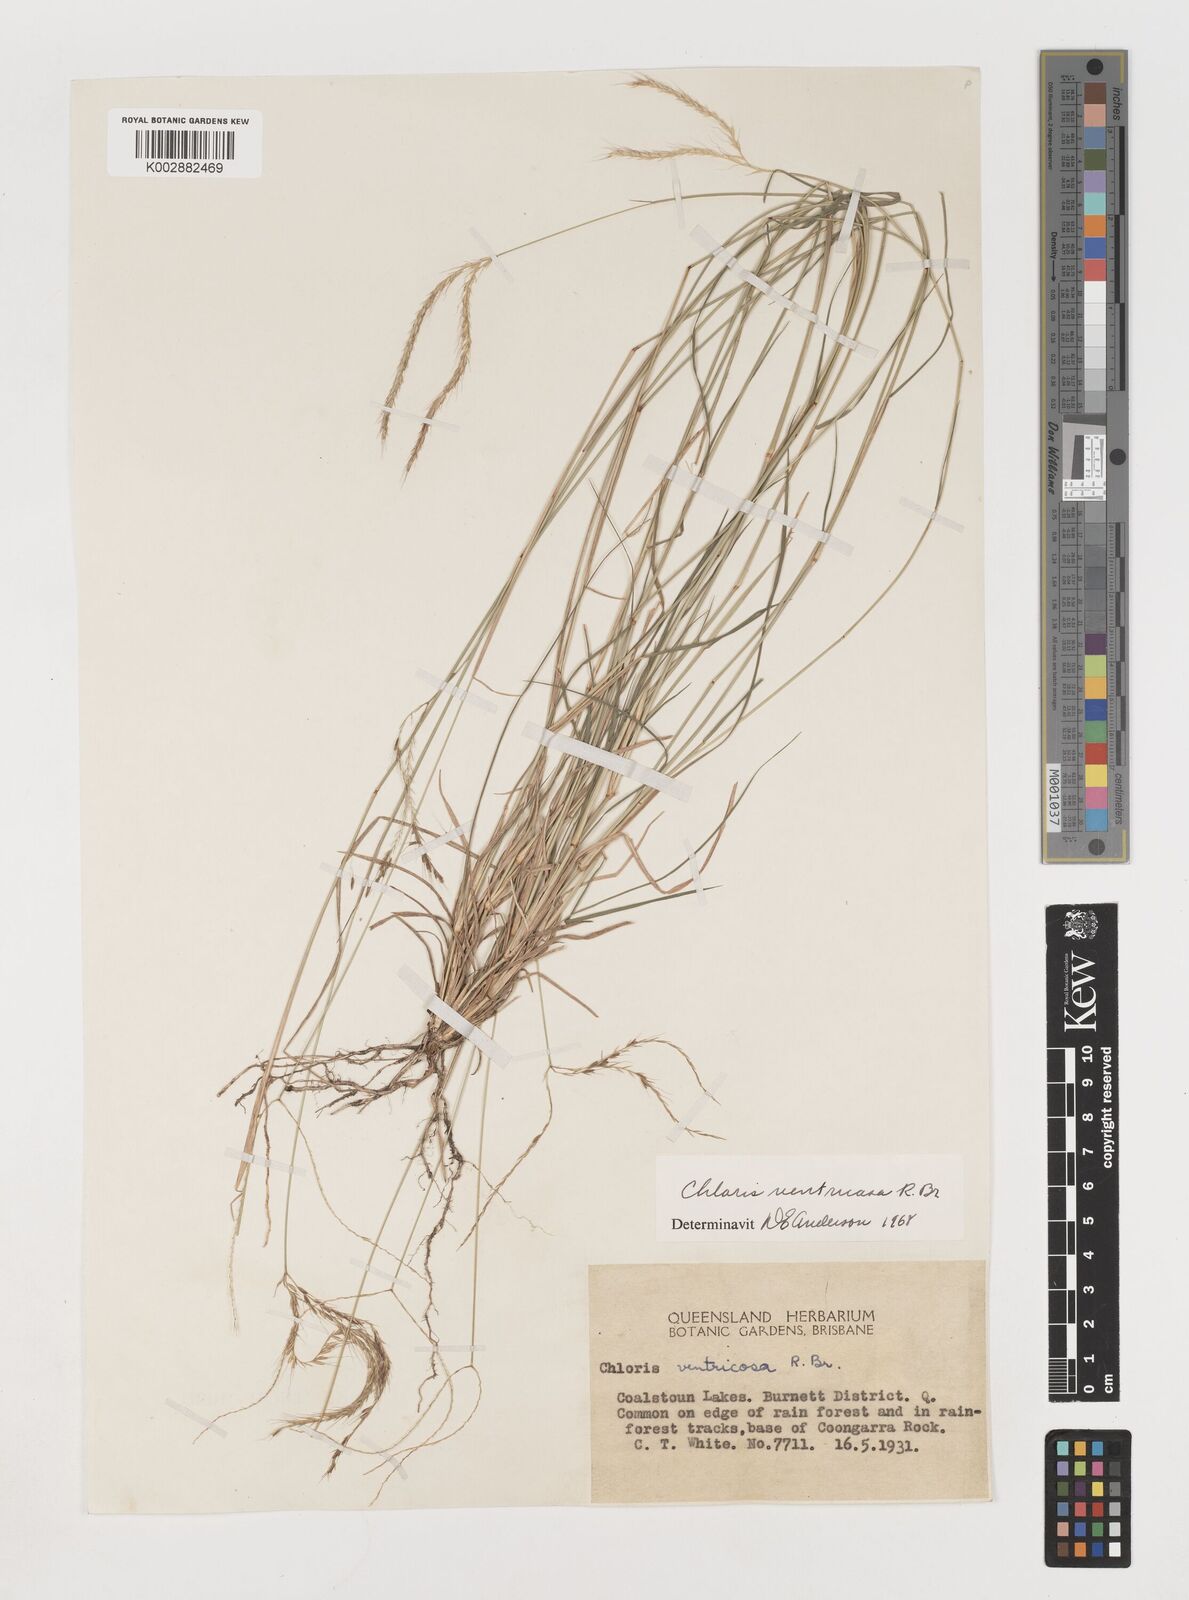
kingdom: Plantae
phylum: Tracheophyta
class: Liliopsida
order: Poales
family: Poaceae
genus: Chloris
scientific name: Chloris ventricosa
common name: Australian windmill grass
